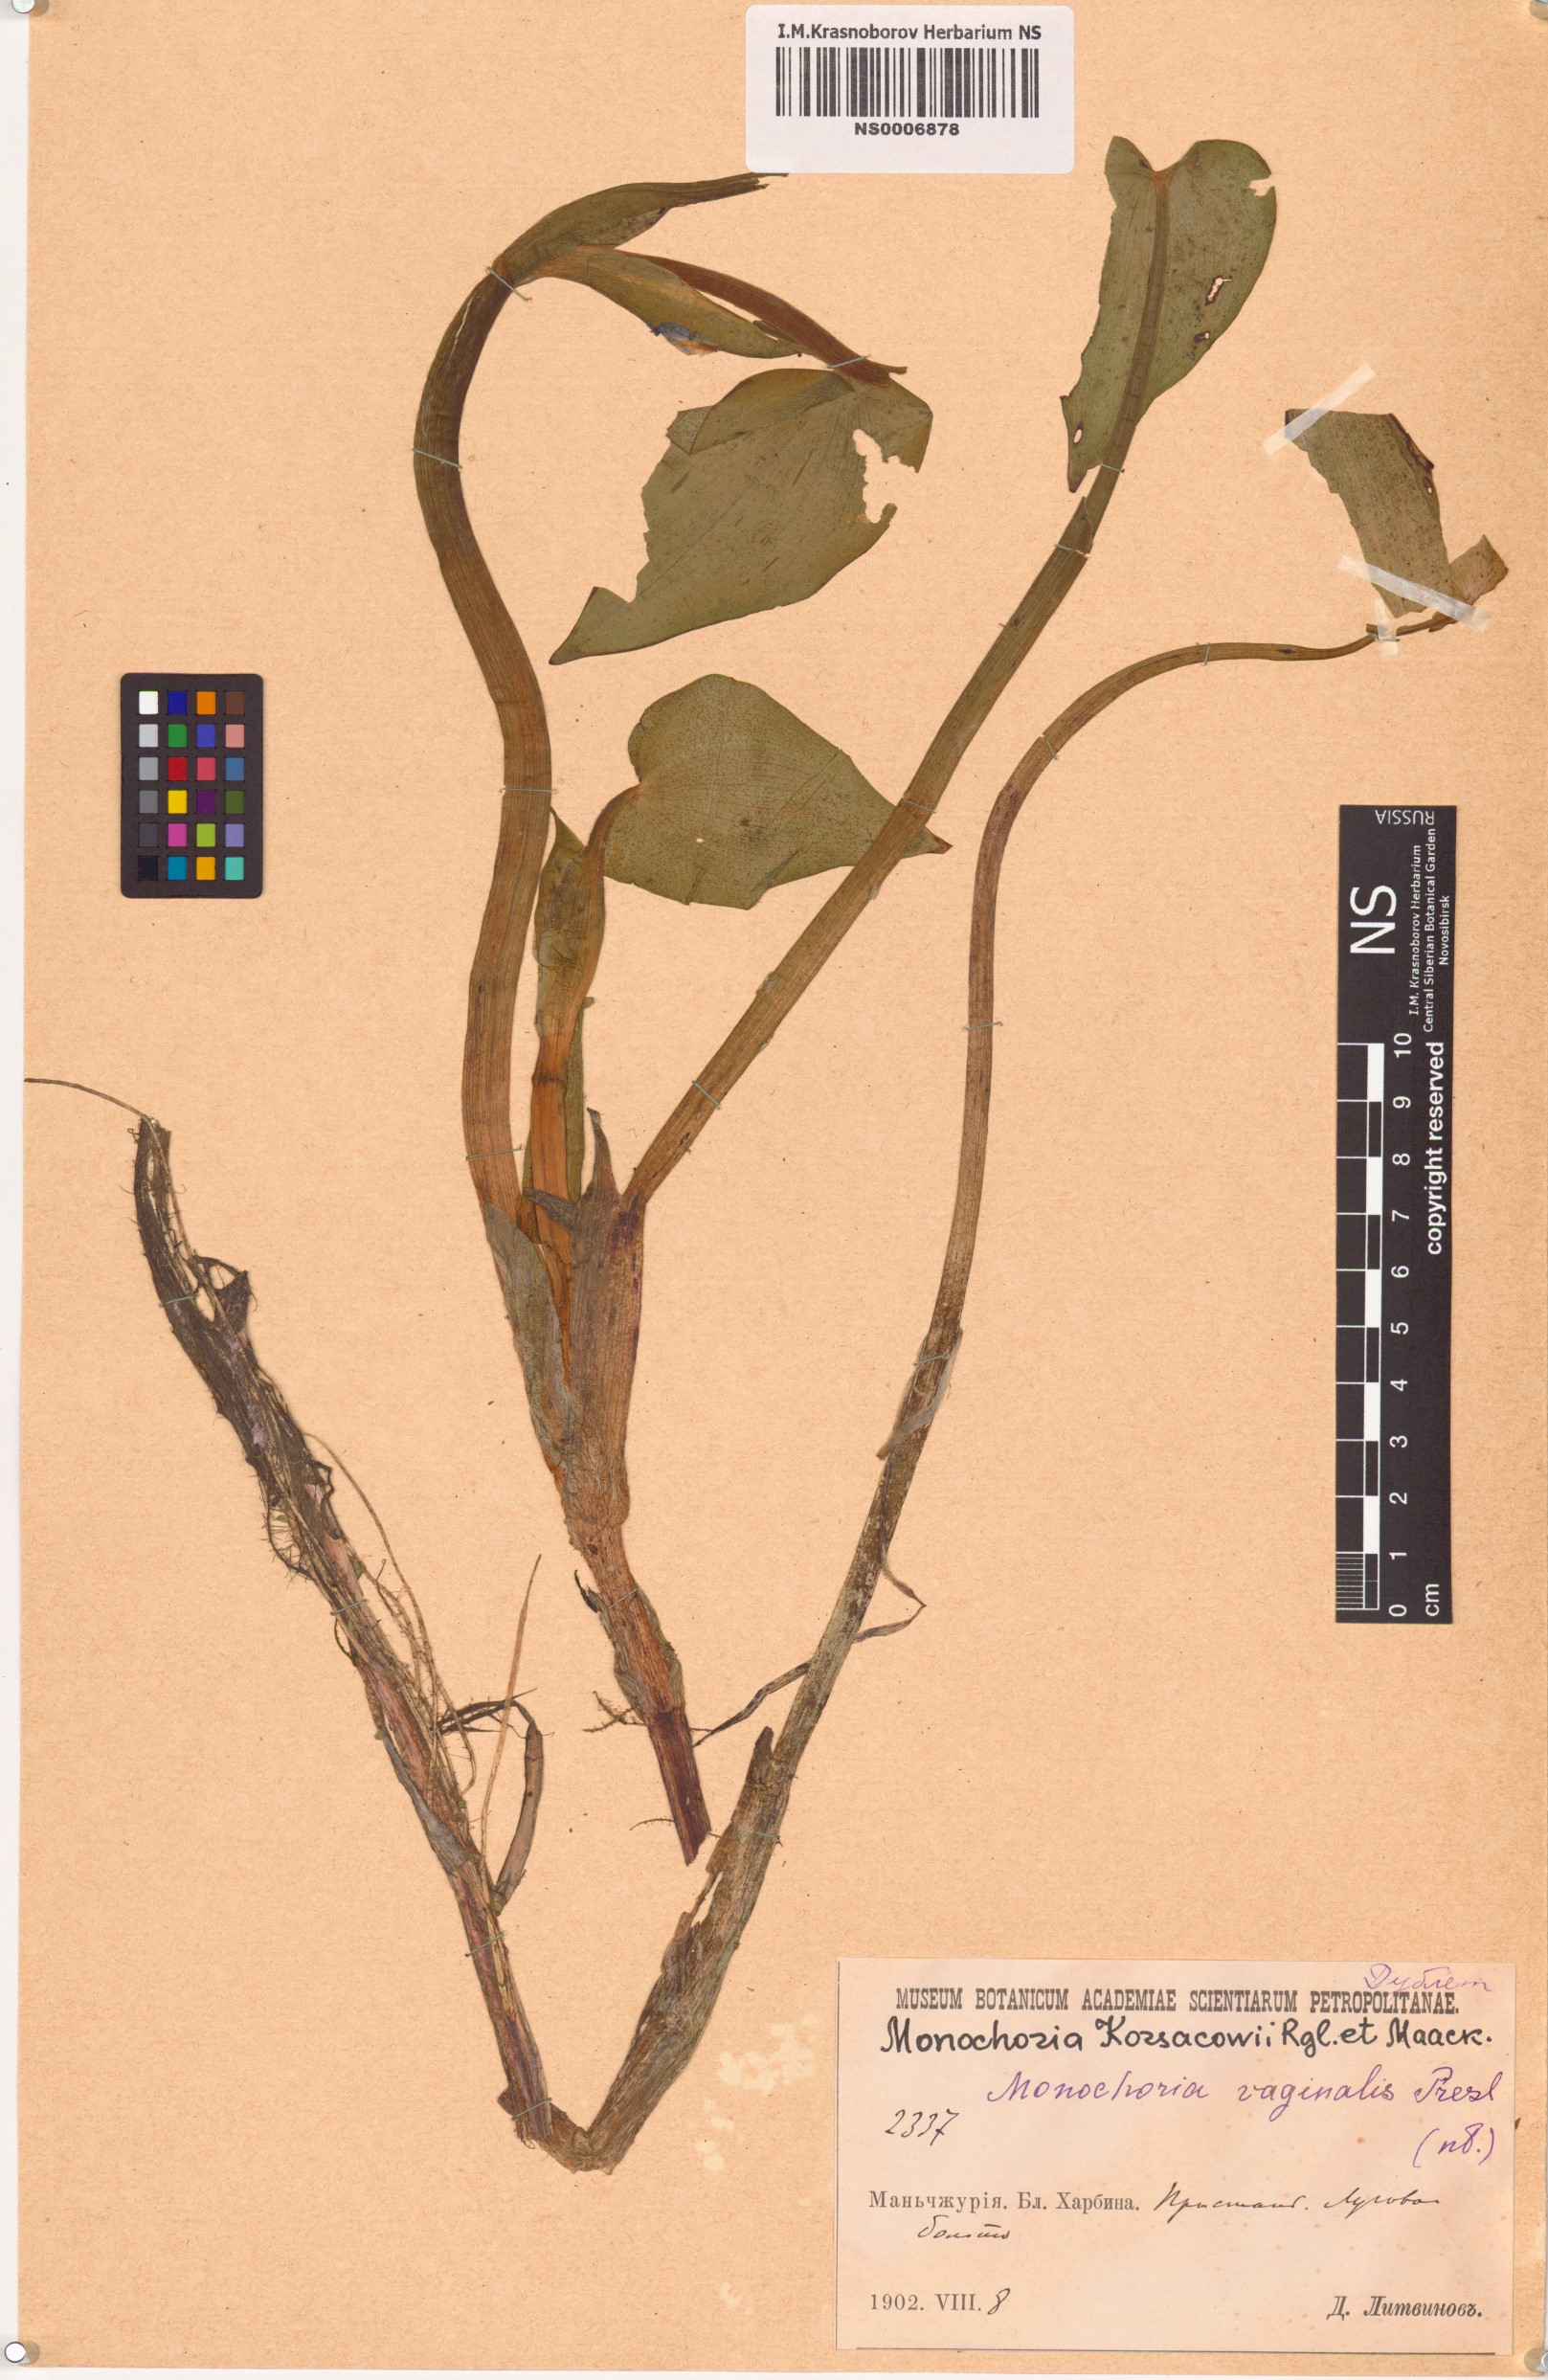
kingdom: Plantae
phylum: Tracheophyta
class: Liliopsida
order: Commelinales
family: Pontederiaceae
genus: Pontederia
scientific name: Pontederia korsakowii
